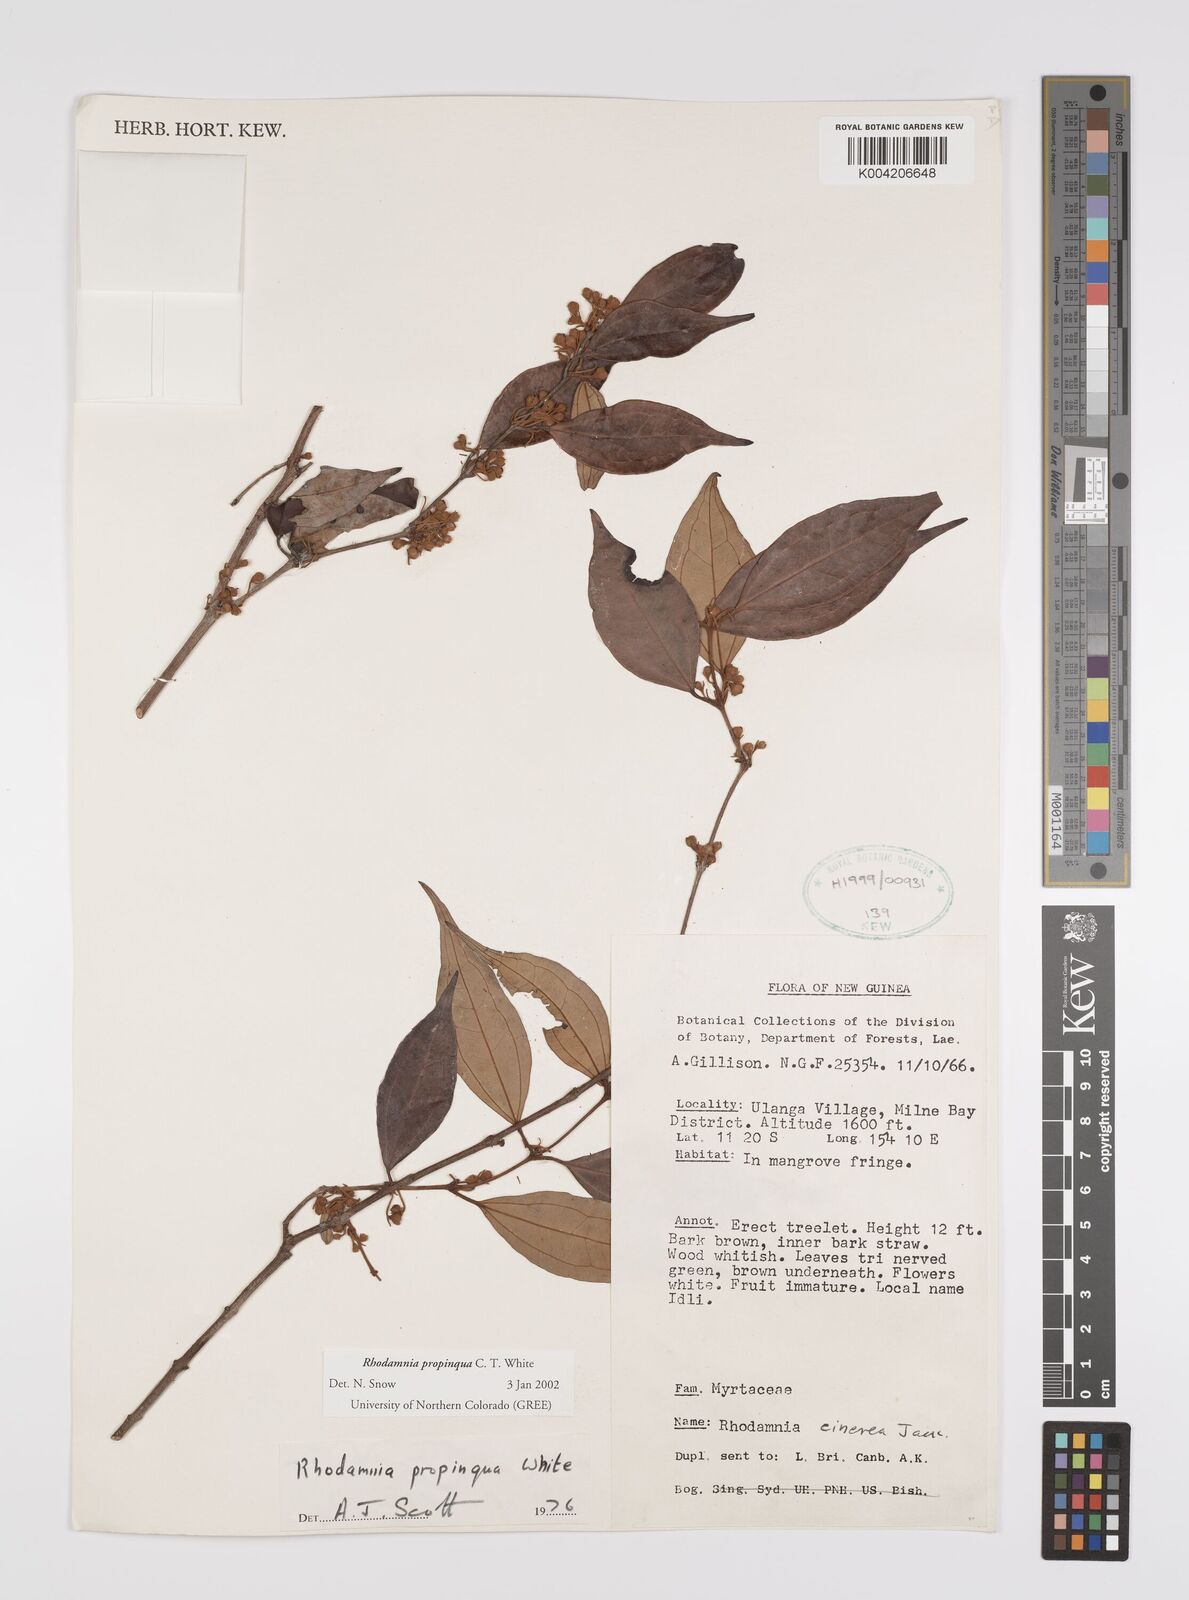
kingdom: Plantae
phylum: Tracheophyta
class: Magnoliopsida
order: Myrtales
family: Myrtaceae
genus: Rhodamnia
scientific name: Rhodamnia blairiana
